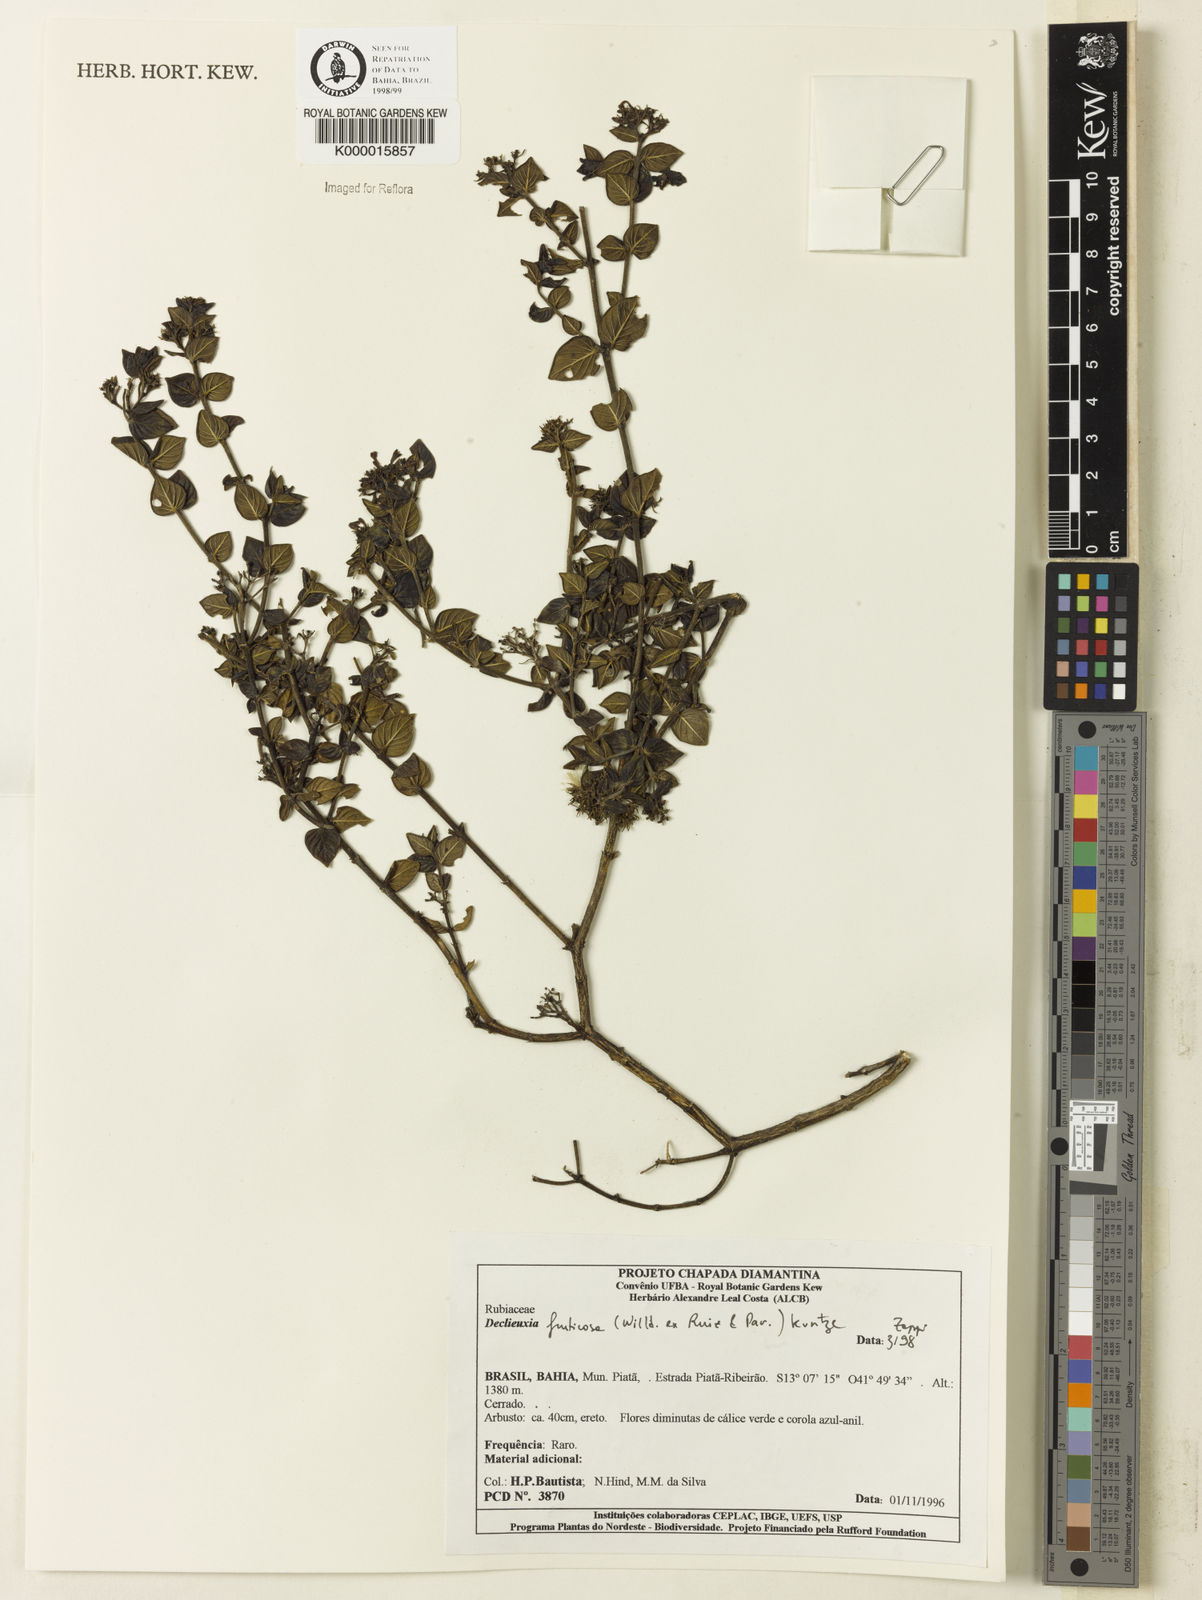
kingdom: Plantae
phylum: Tracheophyta
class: Magnoliopsida
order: Gentianales
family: Rubiaceae
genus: Declieuxia
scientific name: Declieuxia fruticosa
